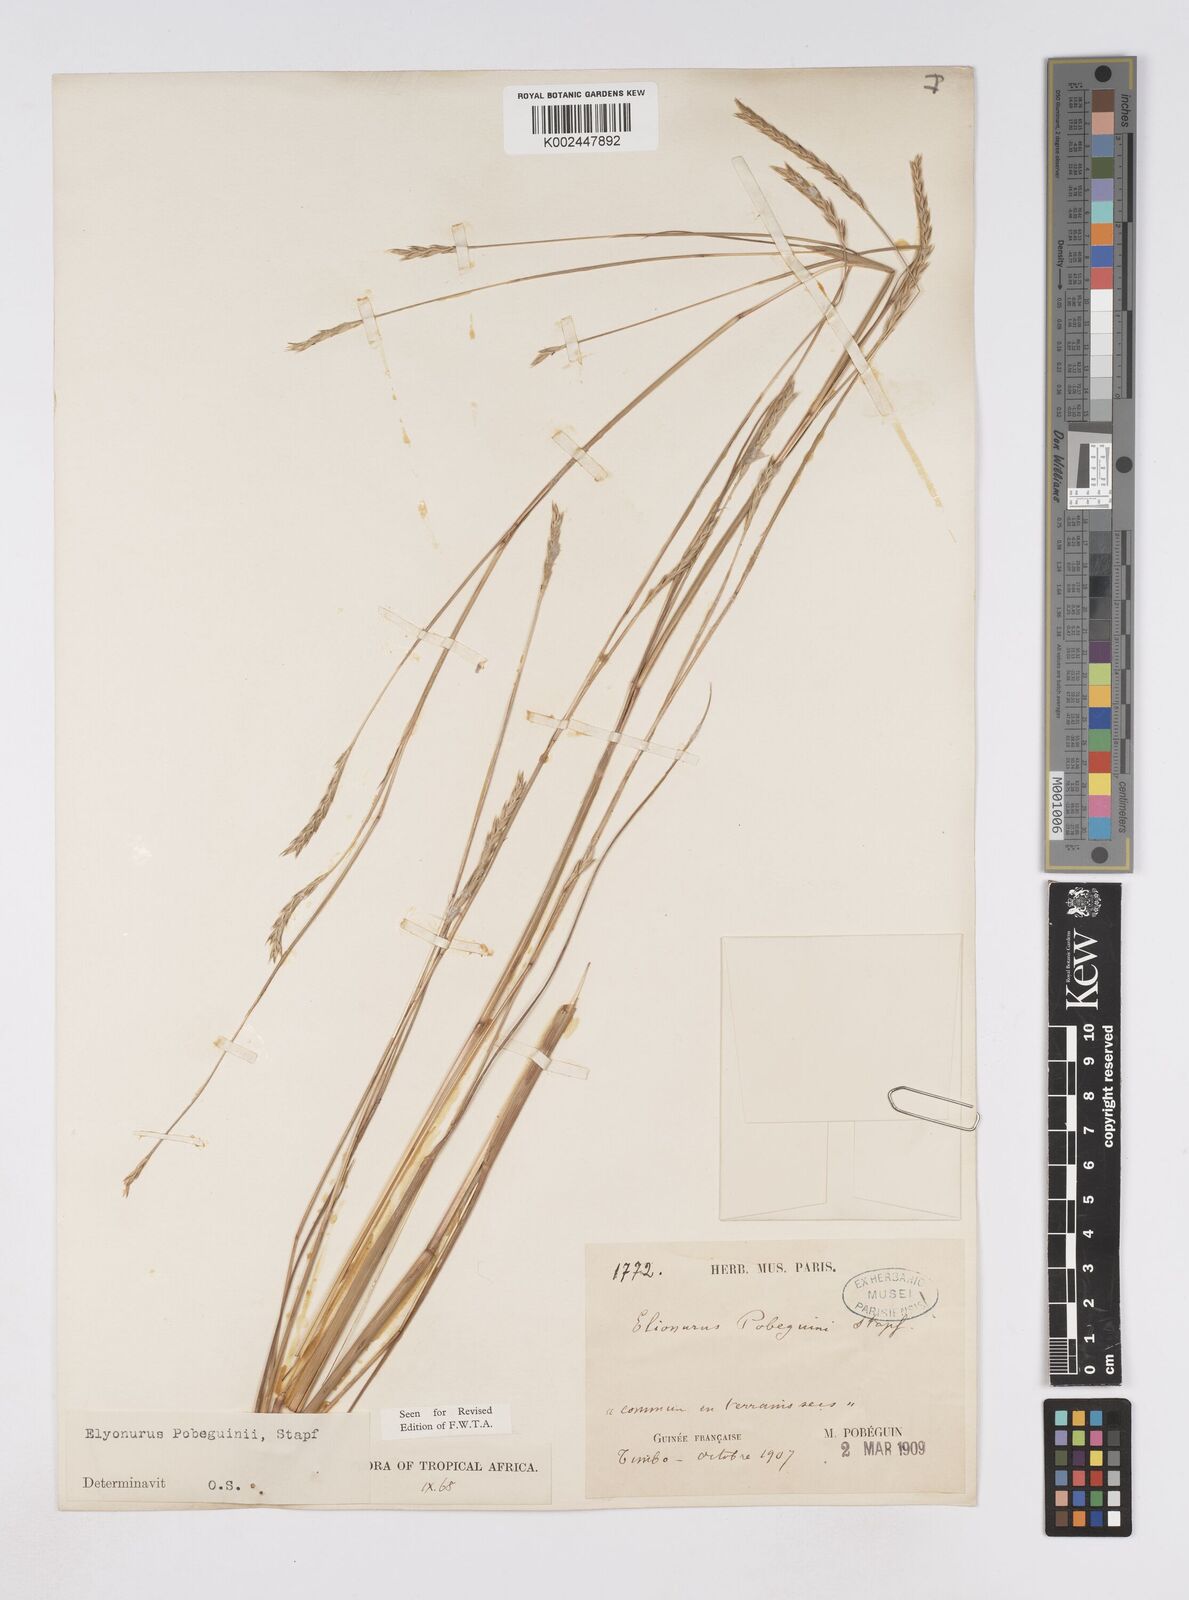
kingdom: Plantae
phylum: Tracheophyta
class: Liliopsida
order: Poales
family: Poaceae
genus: Elionurus
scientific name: Elionurus ciliaris
